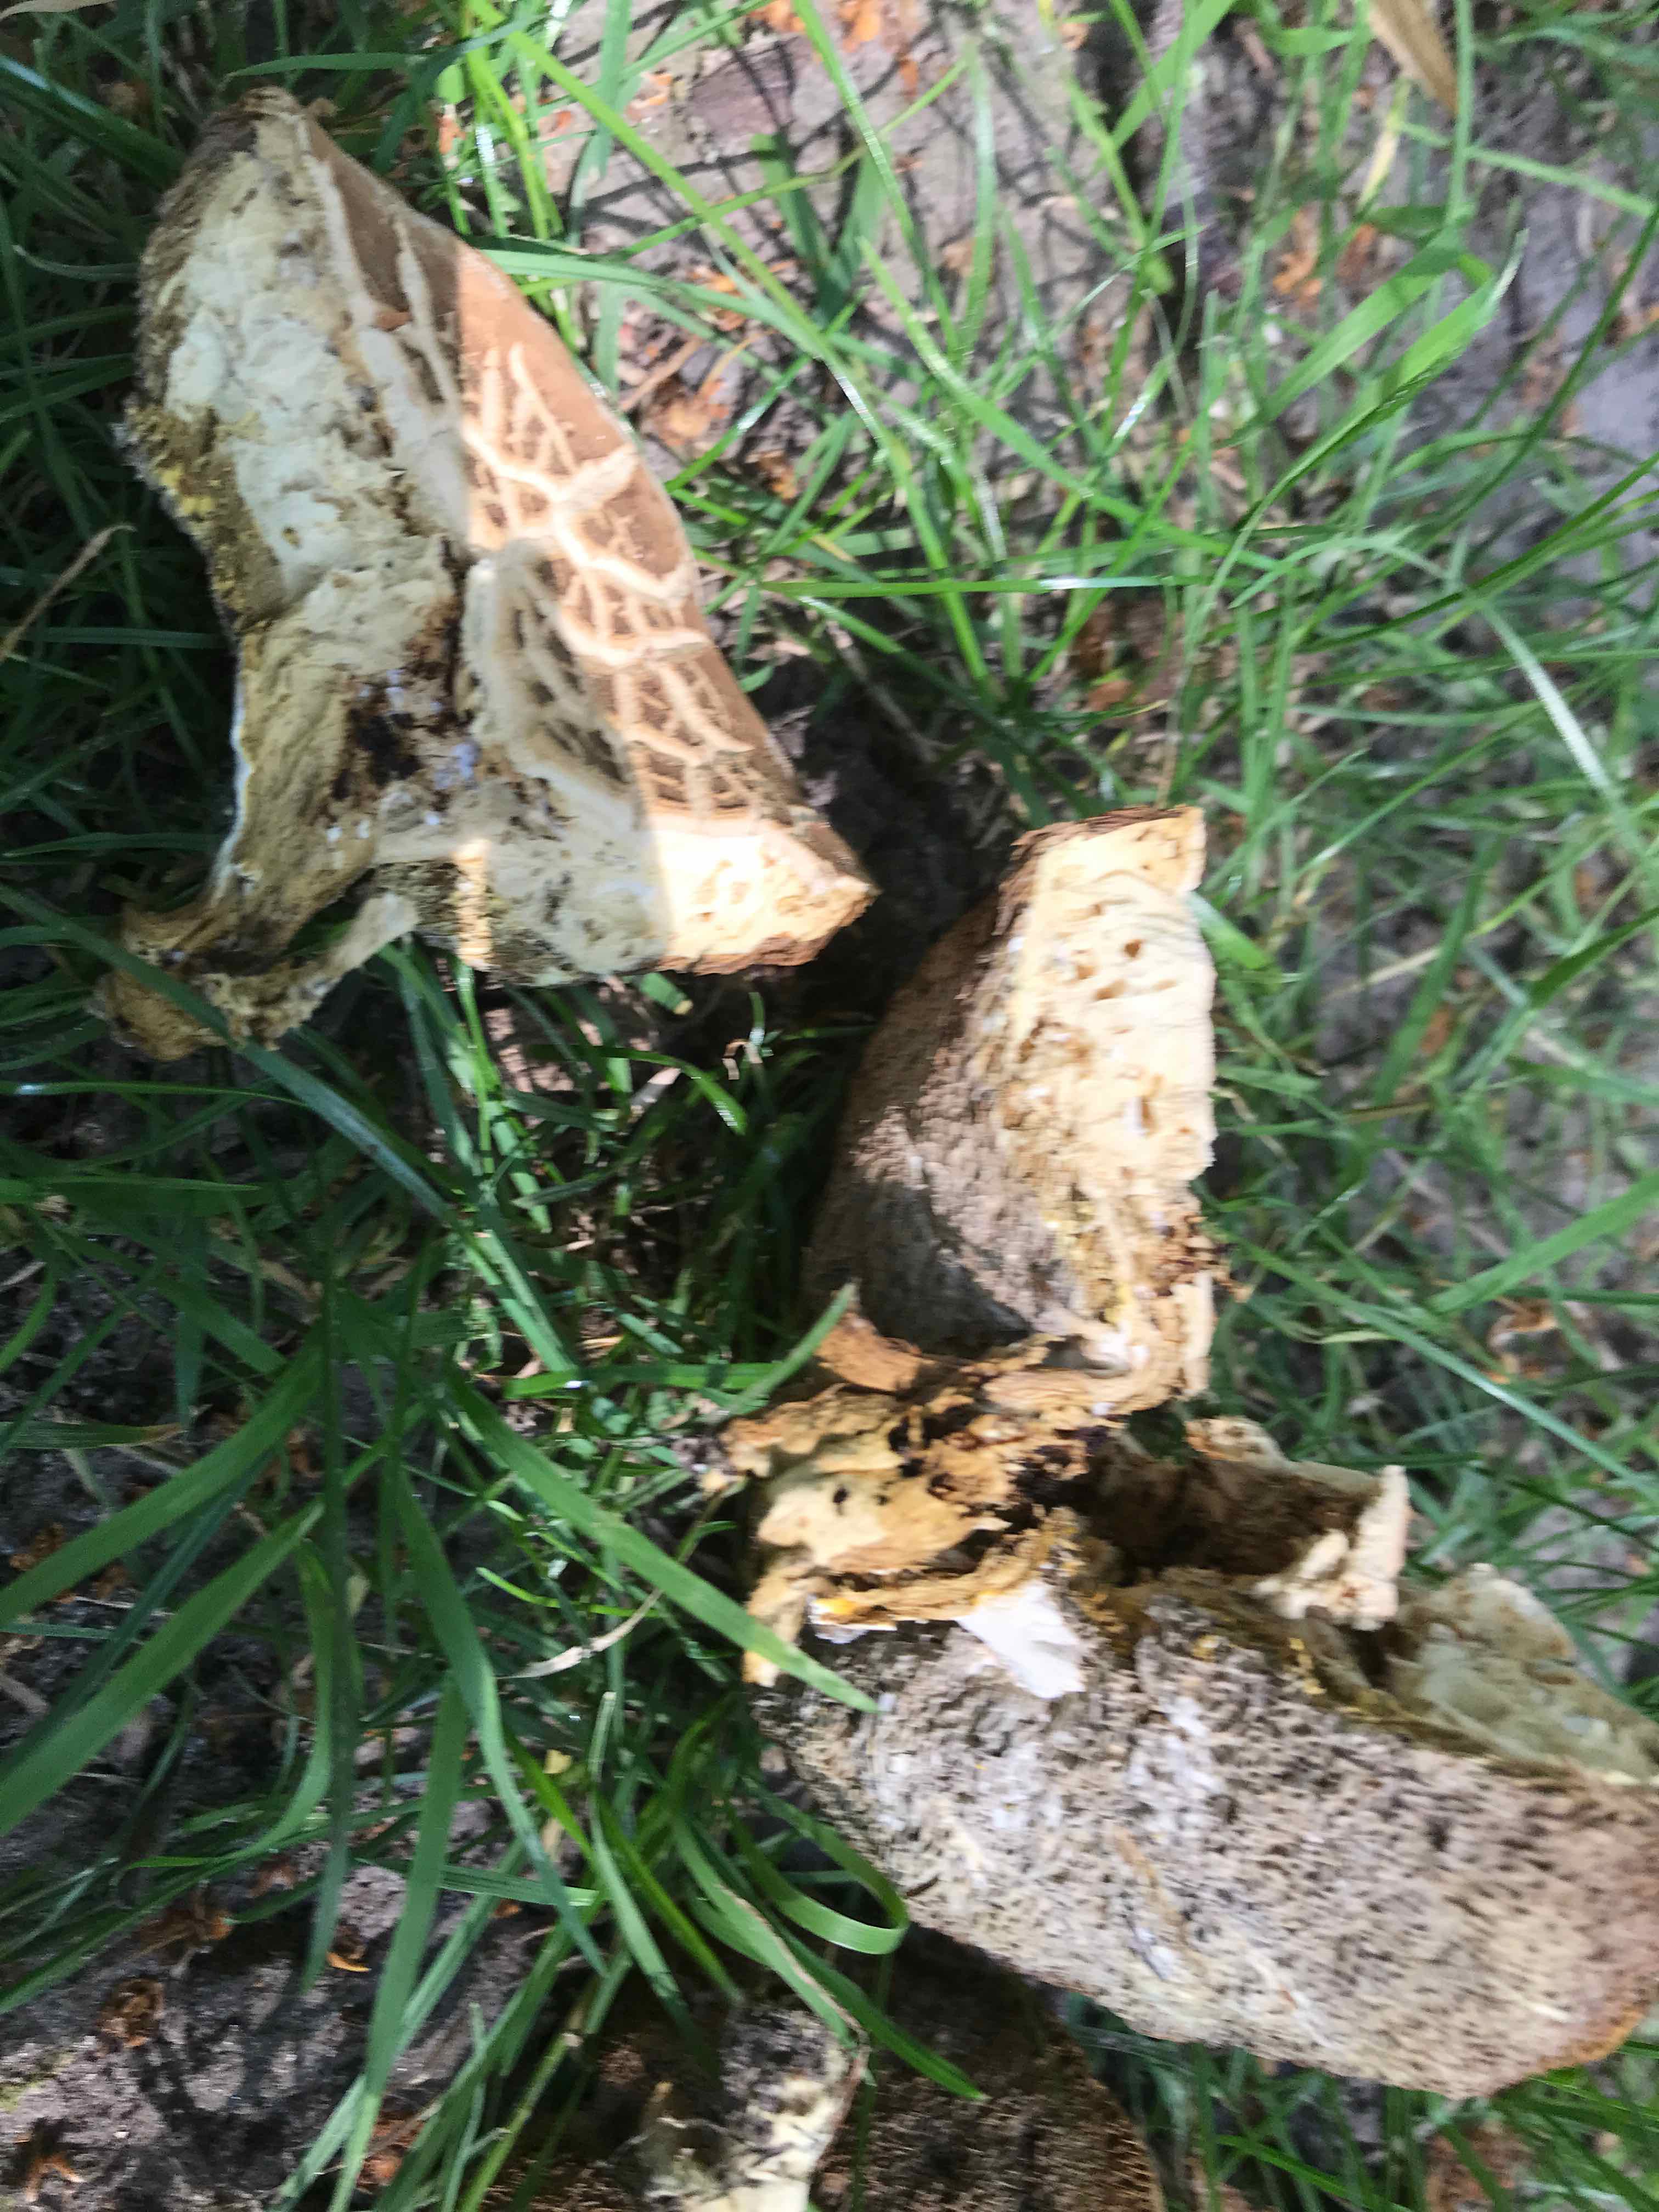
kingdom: Fungi
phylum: Basidiomycota
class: Agaricomycetes
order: Boletales
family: Boletaceae
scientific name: Boletaceae
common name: rørhatfamilien
